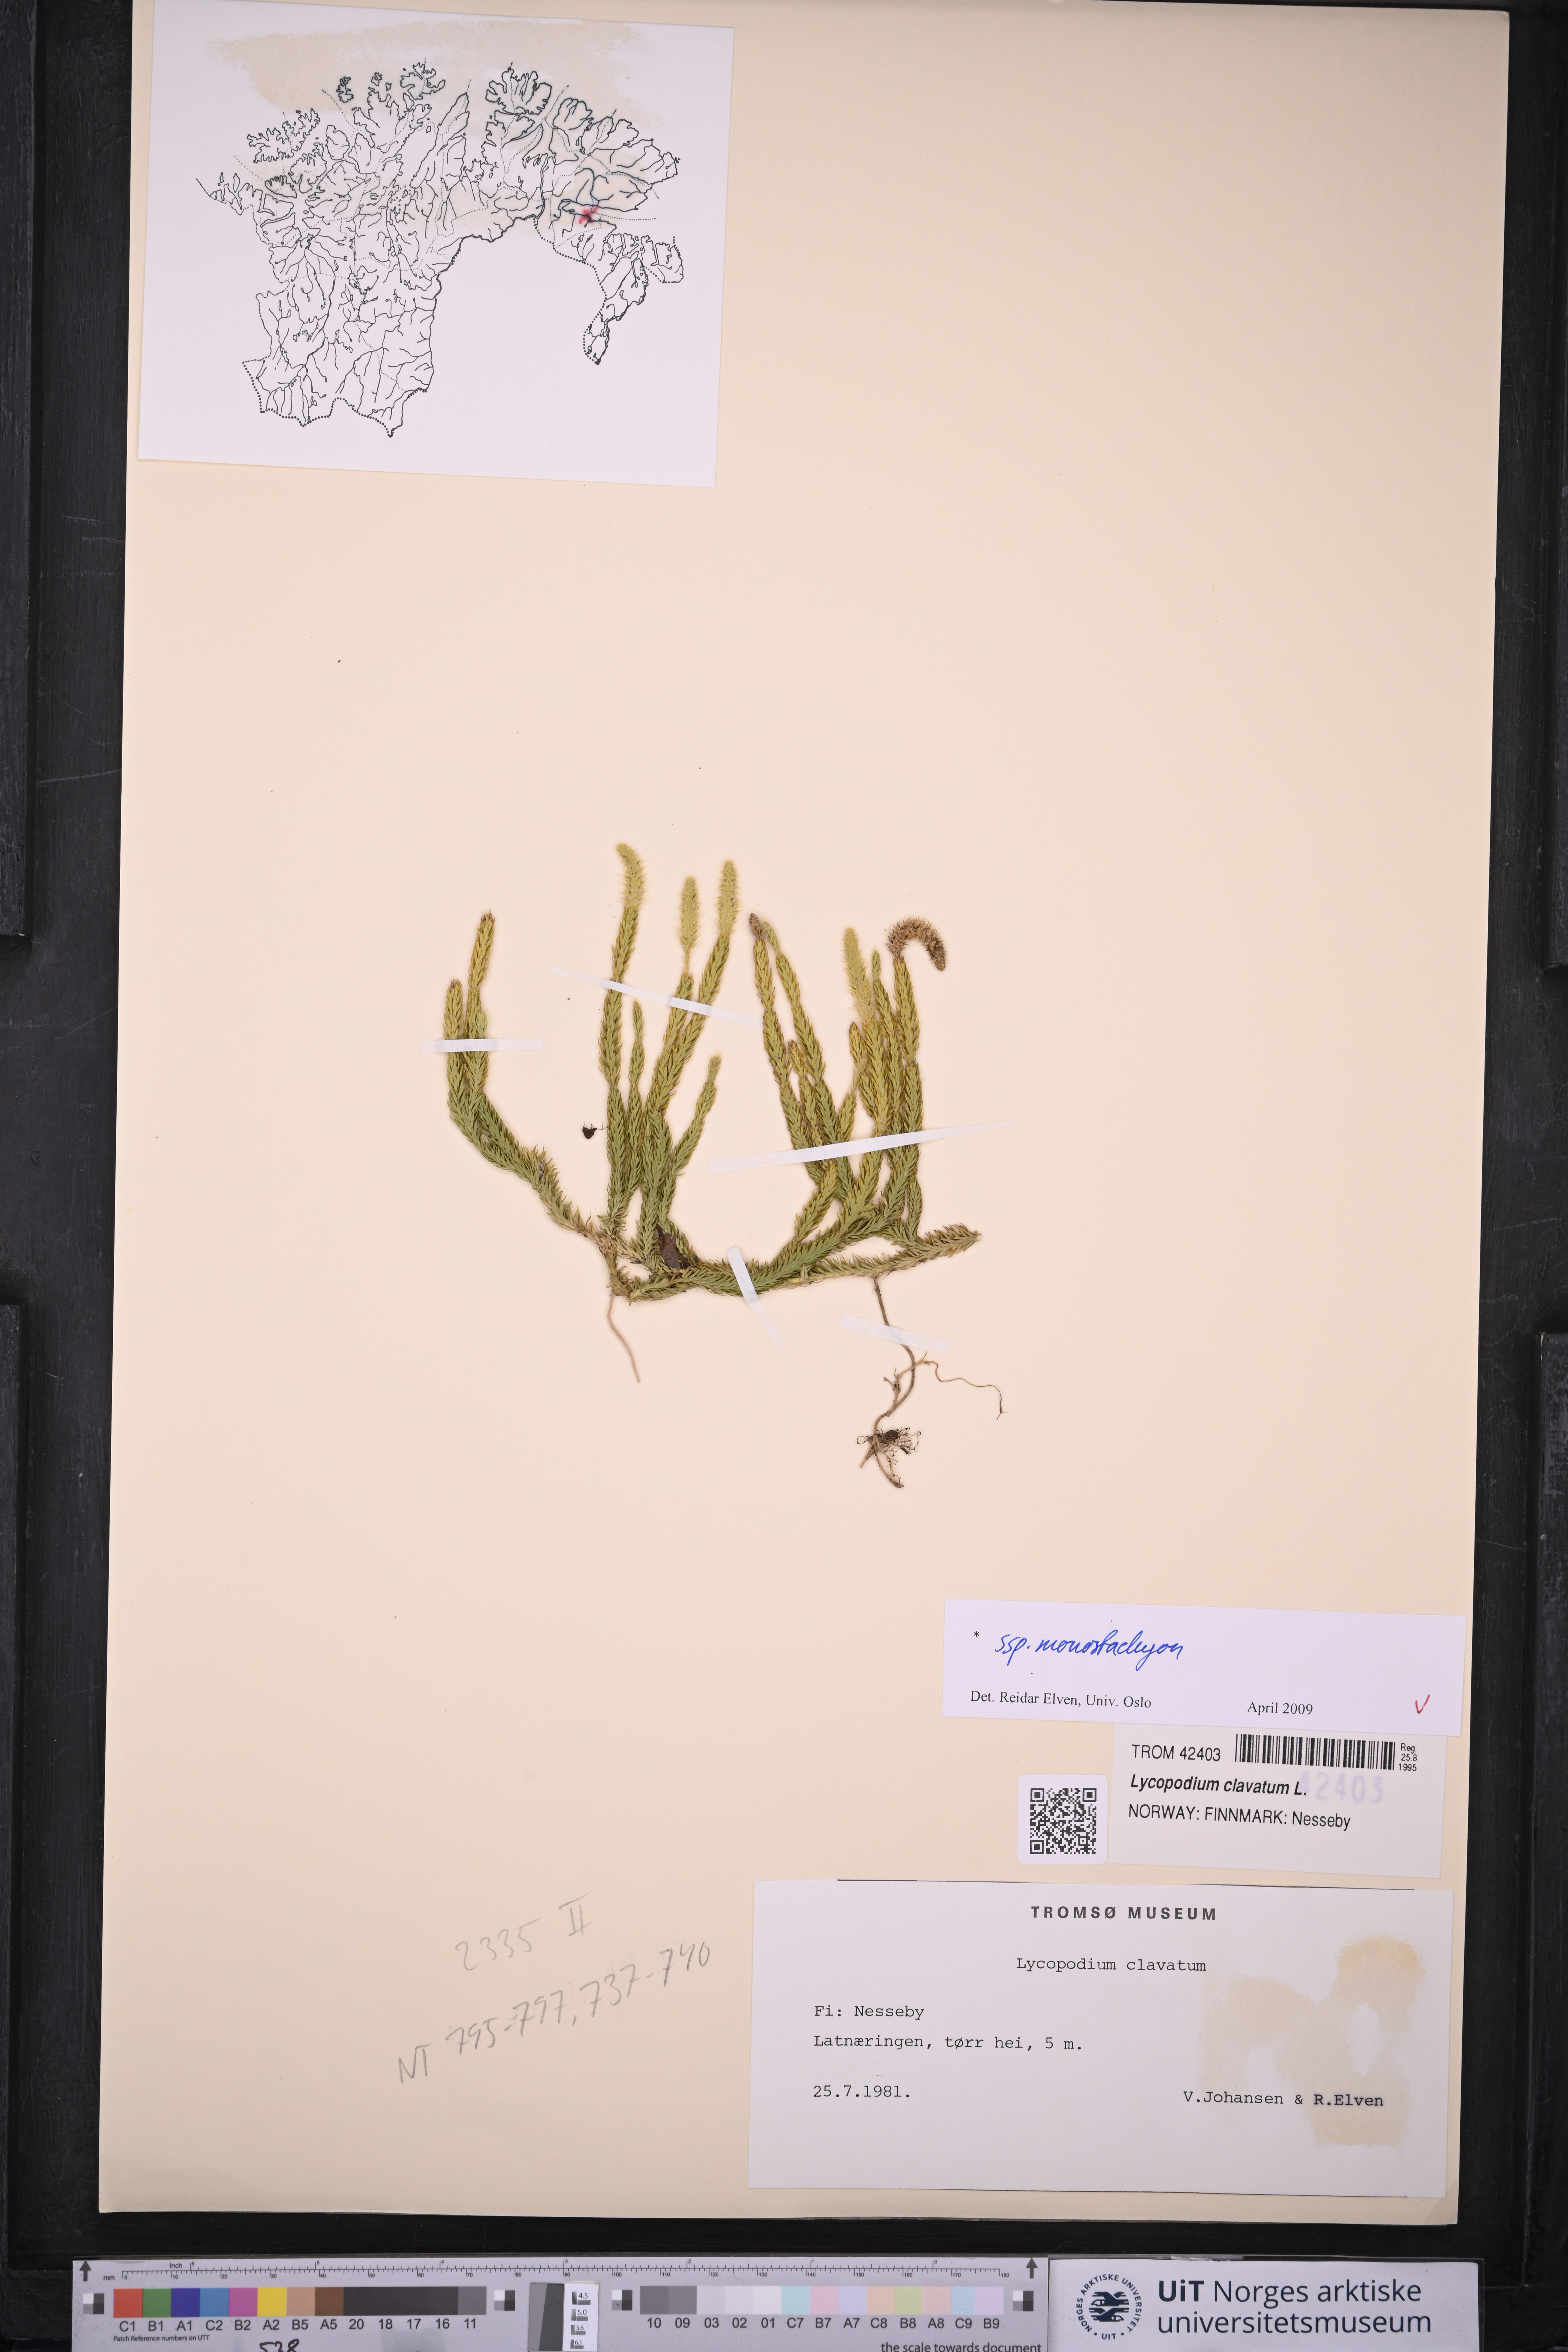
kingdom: Plantae
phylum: Tracheophyta
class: Lycopodiopsida
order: Lycopodiales
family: Lycopodiaceae
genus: Lycopodium
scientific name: Lycopodium lagopus
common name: One-cone clubmoss
